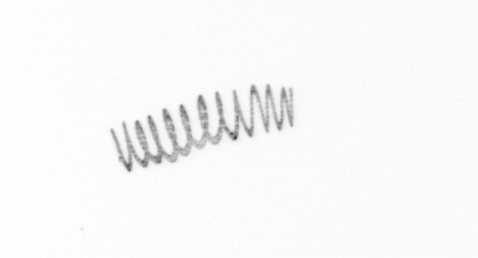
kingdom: Chromista
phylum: Ochrophyta
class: Bacillariophyceae
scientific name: Bacillariophyceae
